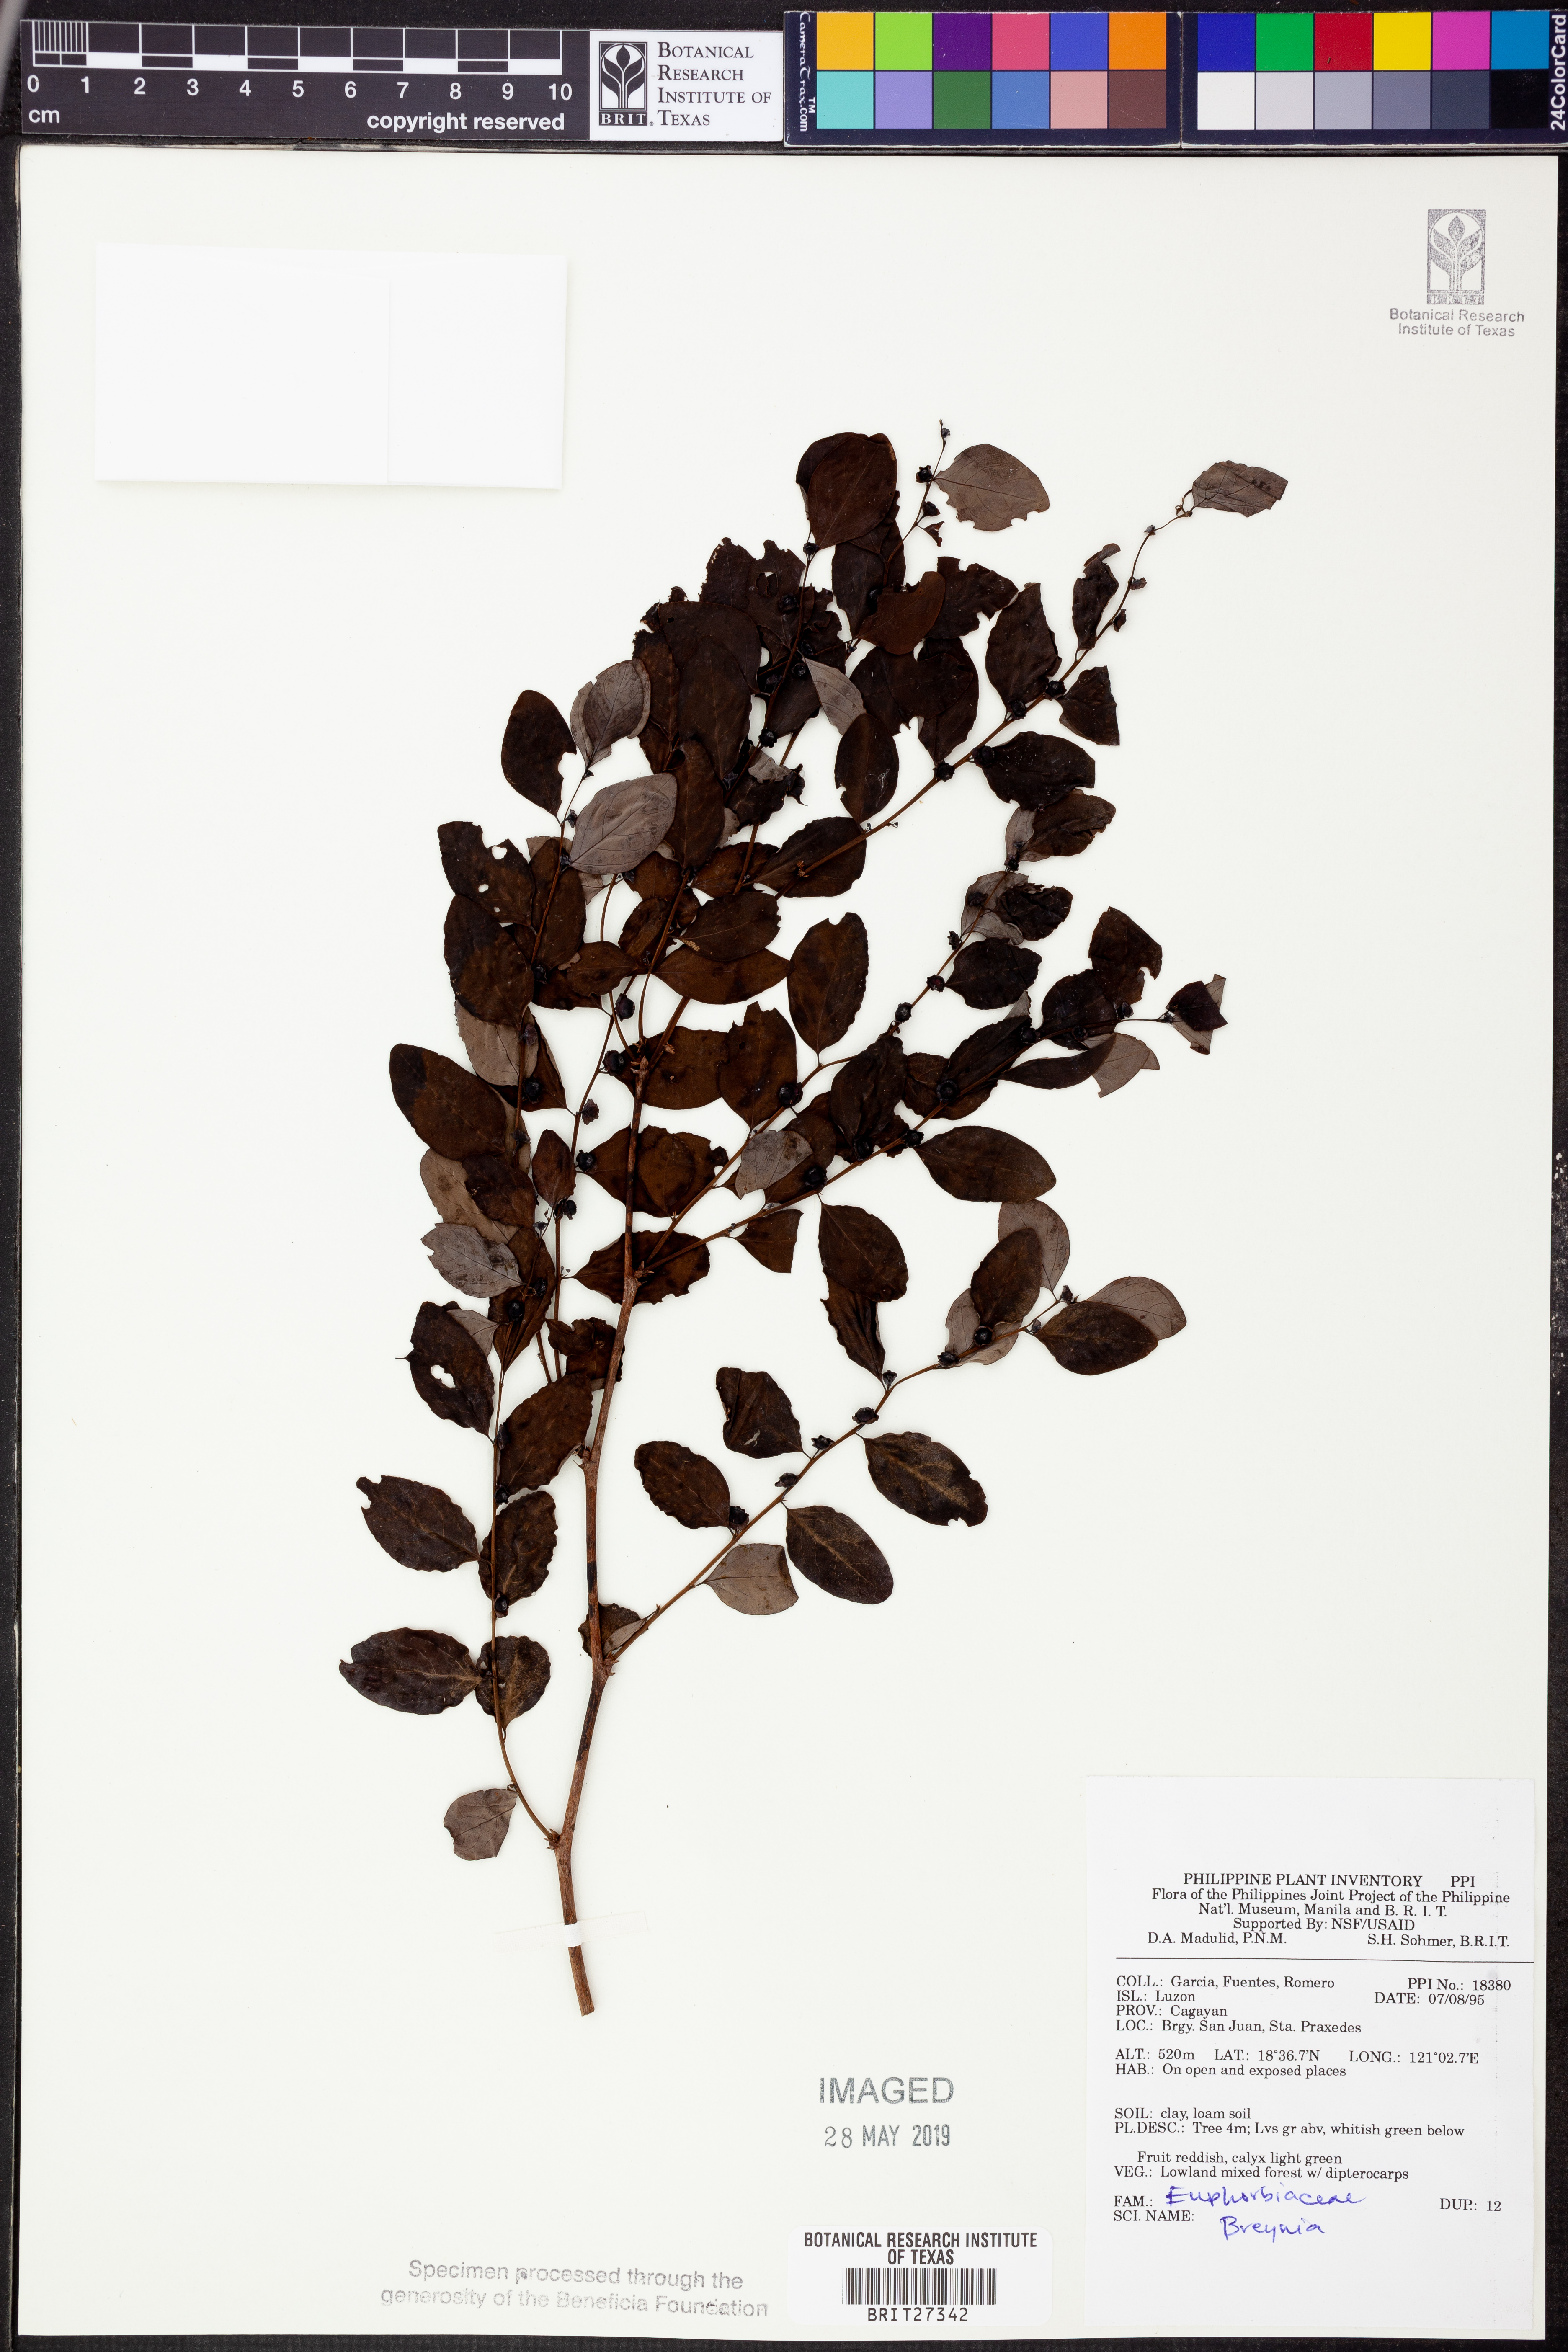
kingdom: Plantae
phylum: Tracheophyta
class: Magnoliopsida
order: Malpighiales
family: Phyllanthaceae
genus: Breynia
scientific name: Breynia
